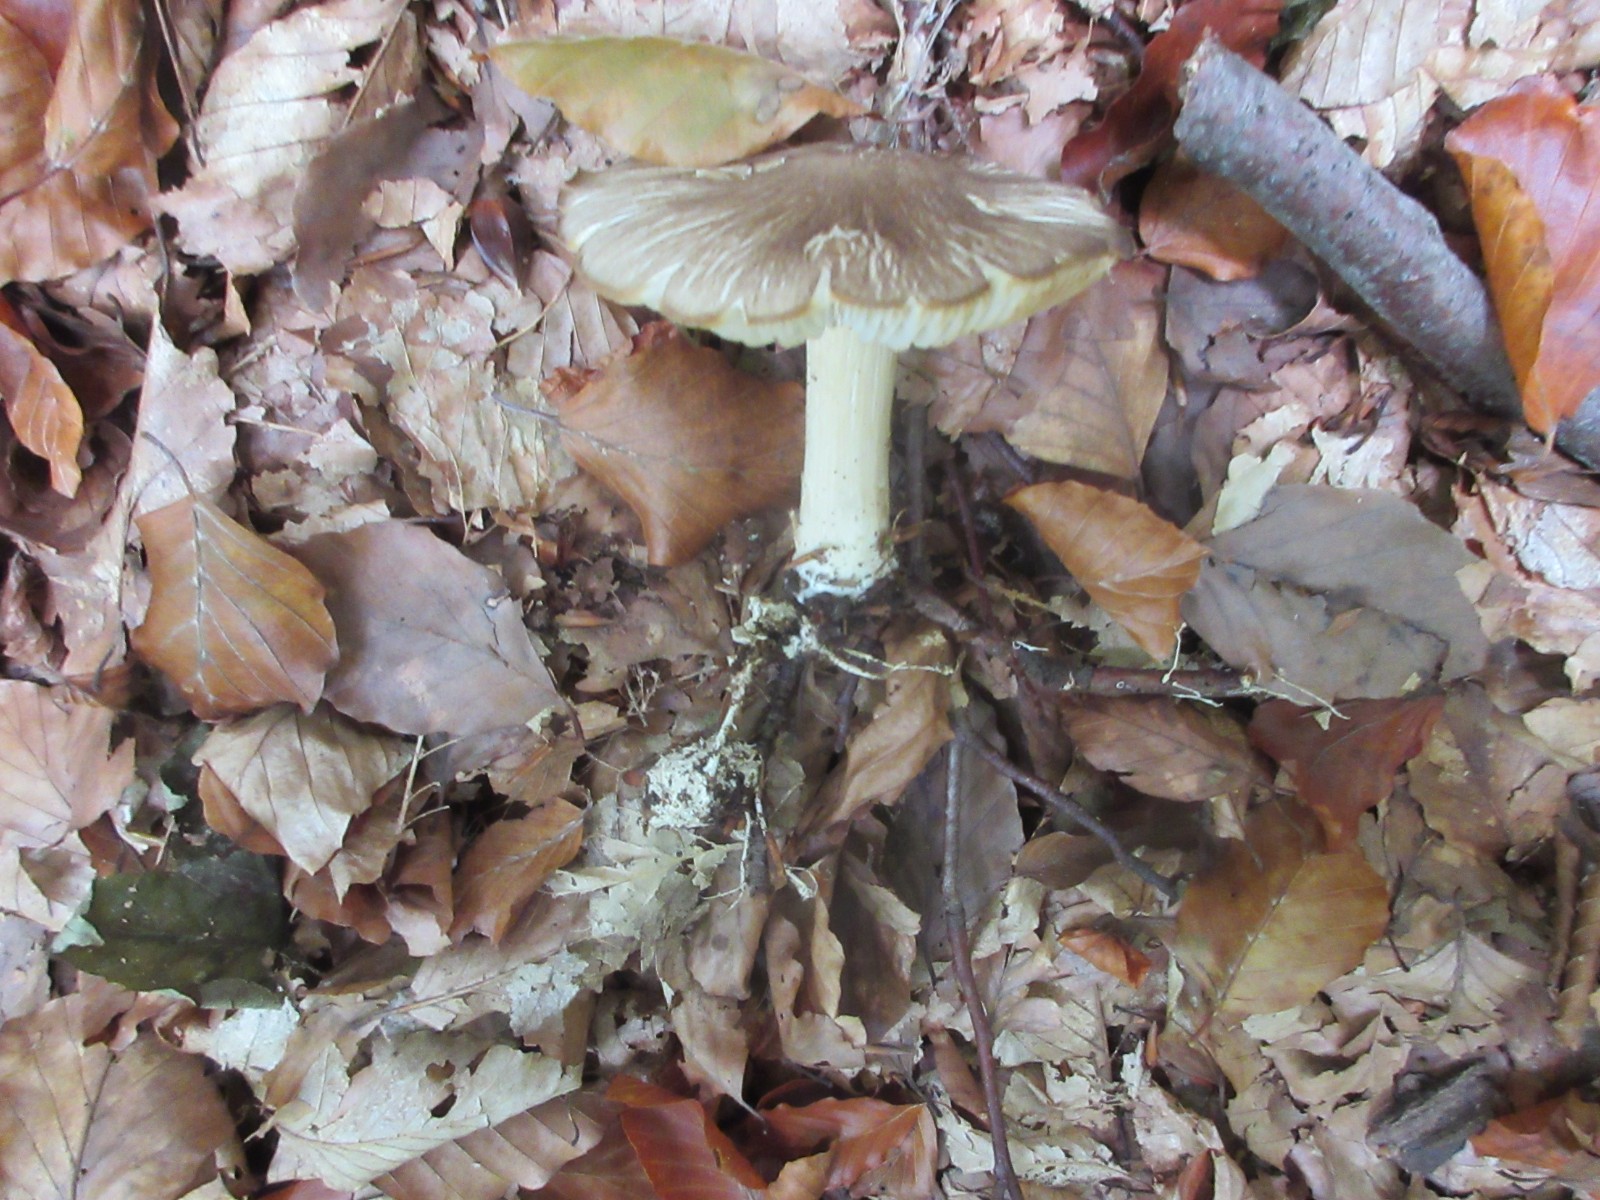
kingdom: Fungi
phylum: Basidiomycota
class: Agaricomycetes
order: Agaricales
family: Tricholomataceae
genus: Megacollybia
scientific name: Megacollybia platyphylla
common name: bredbladet væbnerhat
